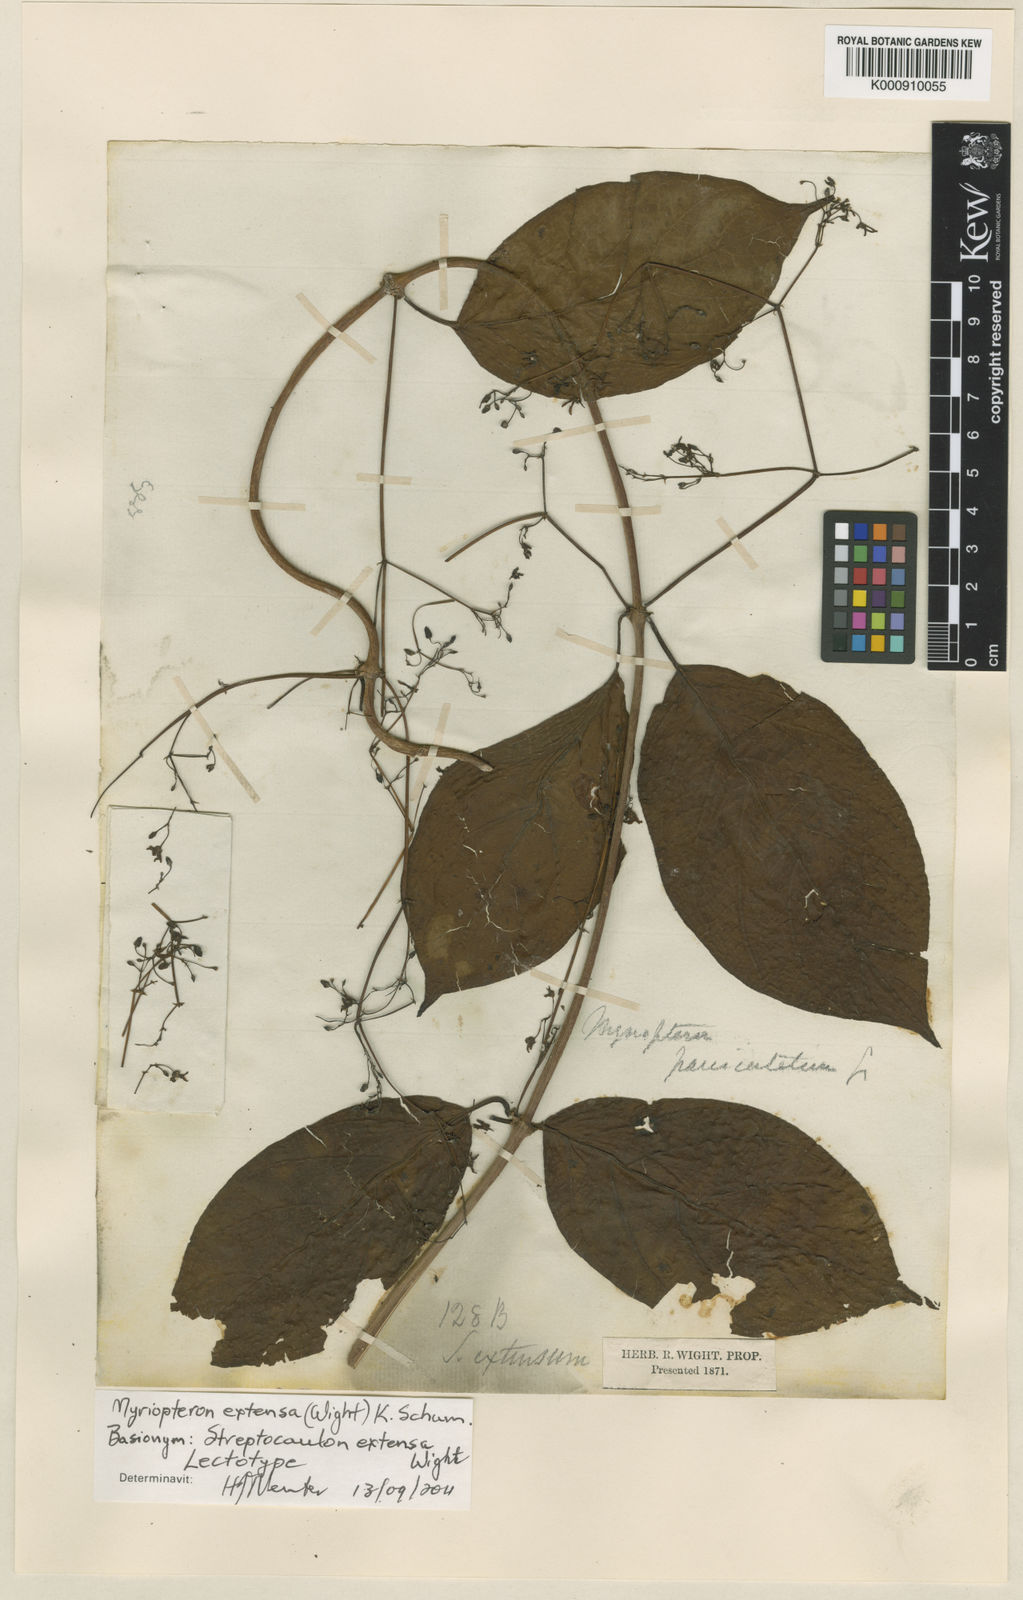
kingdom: Plantae
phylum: Tracheophyta
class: Magnoliopsida
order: Gentianales
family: Apocynaceae
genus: Myriopteron
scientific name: Myriopteron extensum
